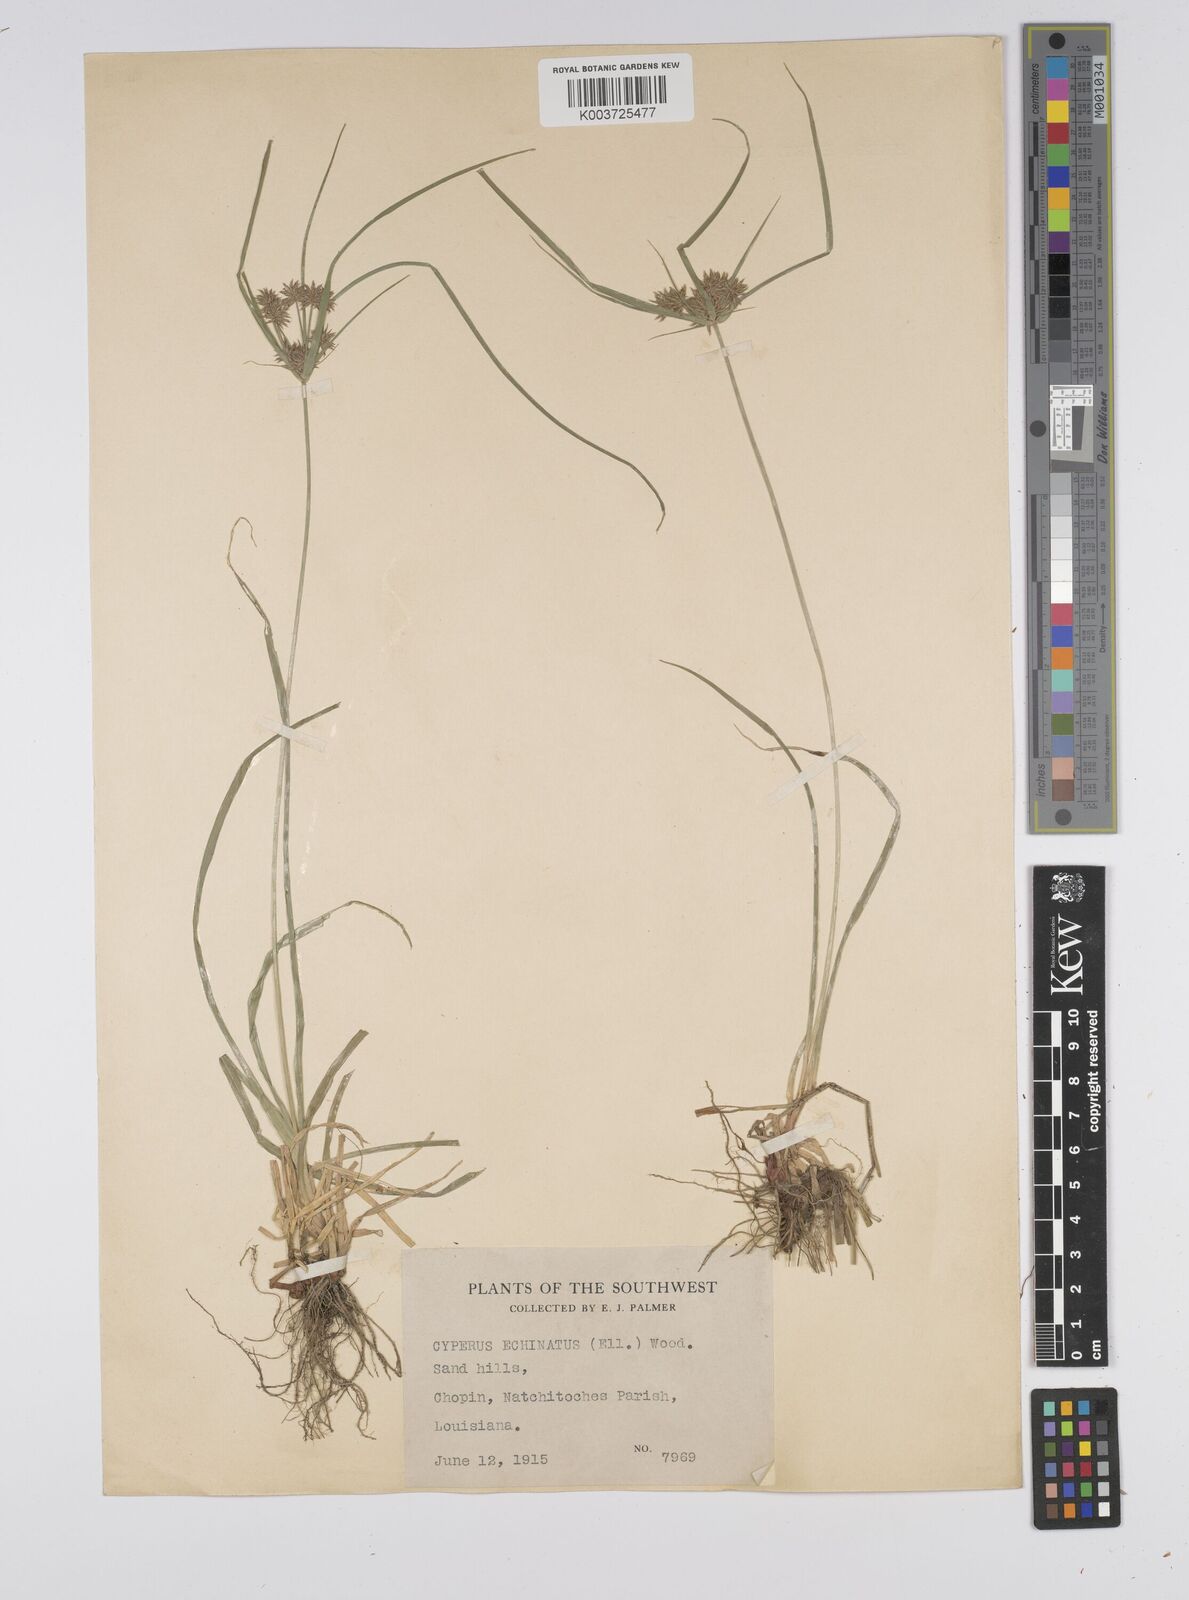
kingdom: Plantae
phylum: Tracheophyta
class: Liliopsida
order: Poales
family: Cyperaceae
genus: Cyperus
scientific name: Cyperus luzulae
